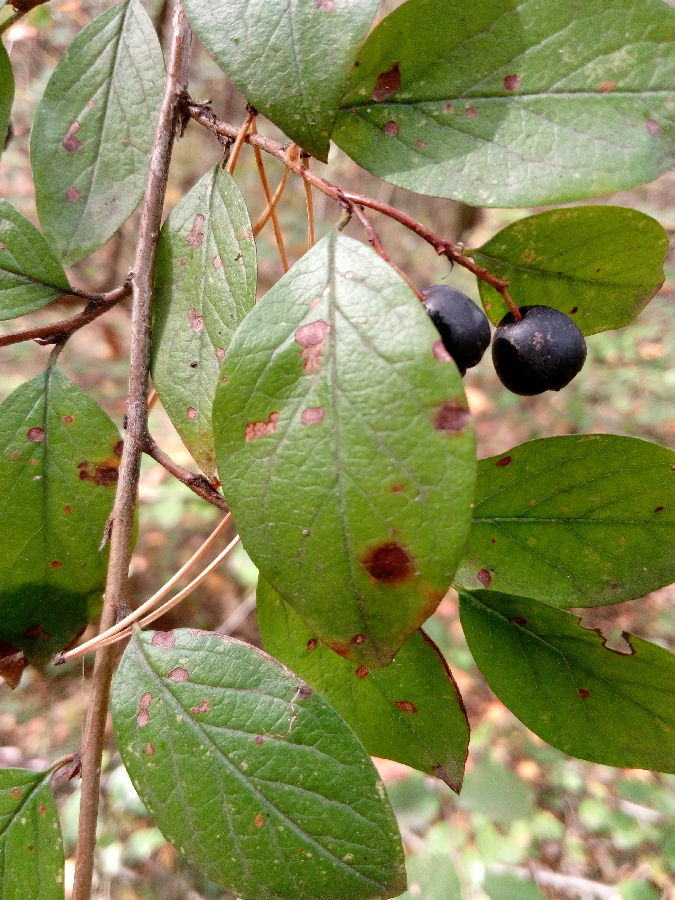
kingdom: Plantae
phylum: Tracheophyta
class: Magnoliopsida
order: Rosales
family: Rosaceae
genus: Cotoneaster
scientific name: Cotoneaster acutifolius
